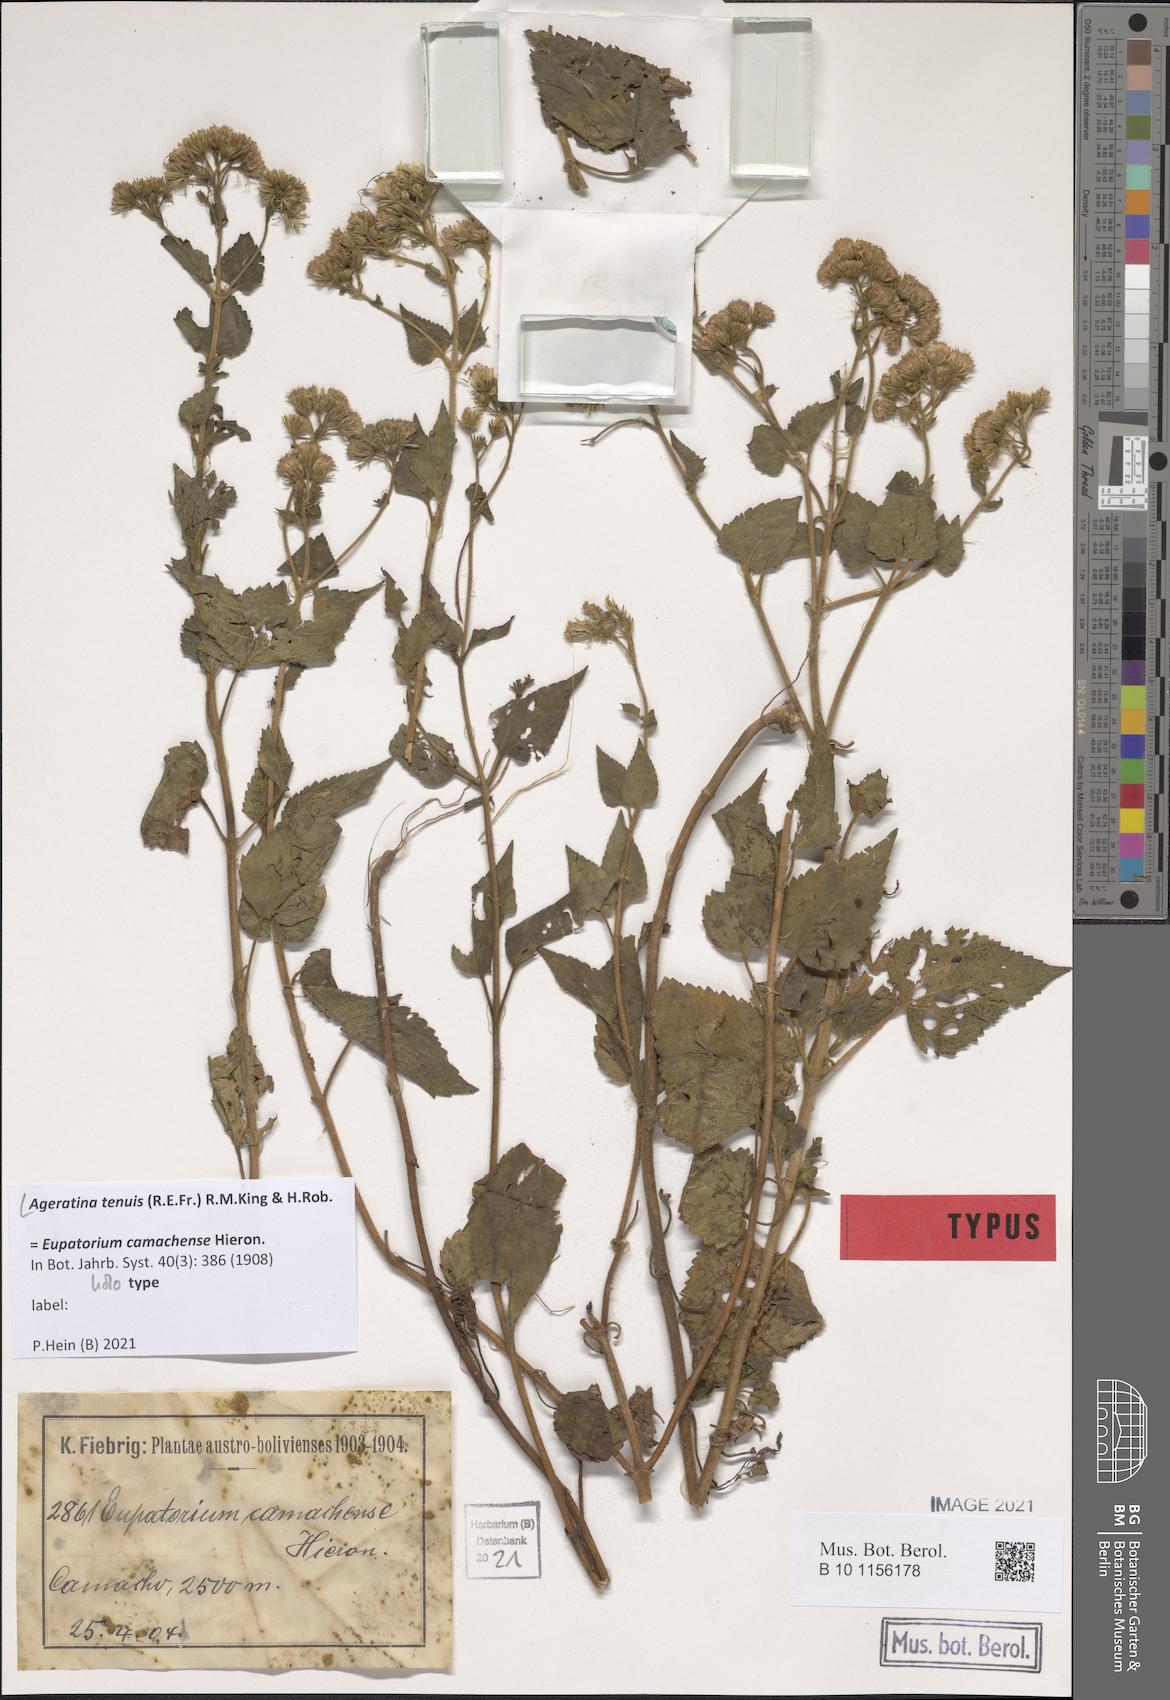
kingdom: Plantae
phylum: Tracheophyta
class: Magnoliopsida
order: Asterales
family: Asteraceae
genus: Ageratina
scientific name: Ageratina tenuis
